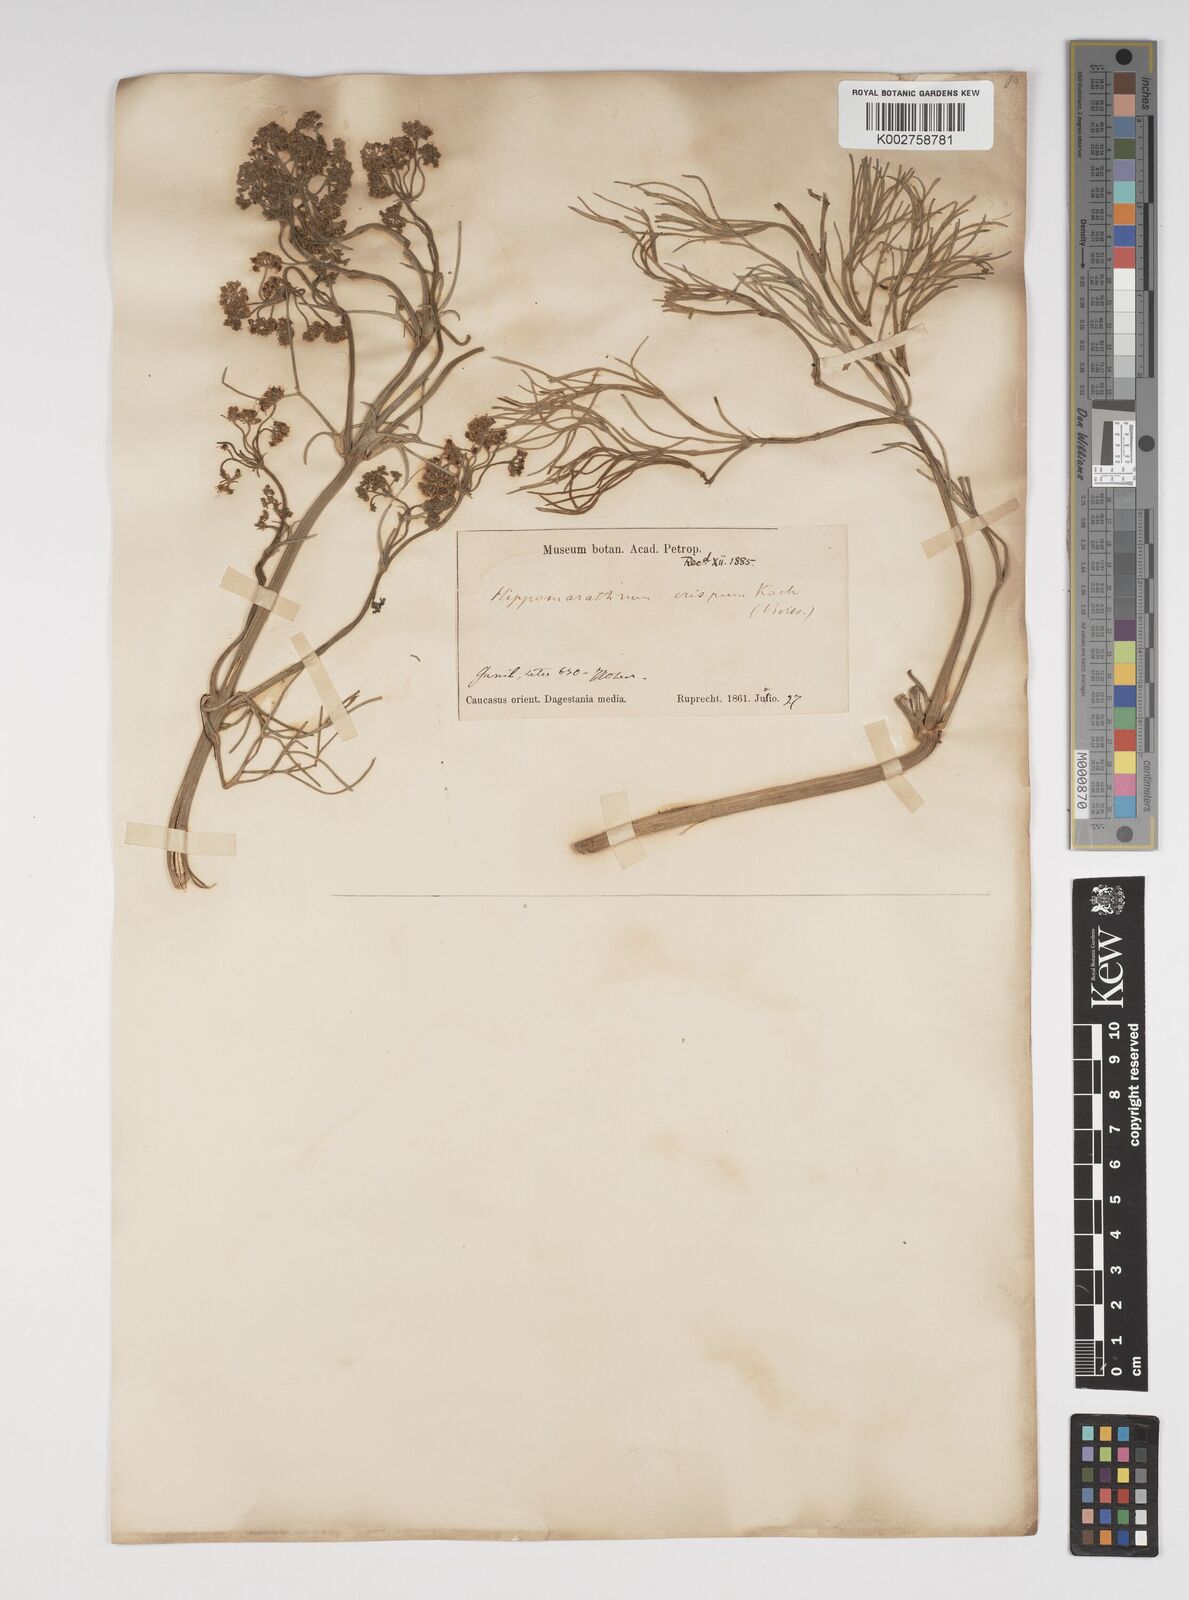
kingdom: Plantae
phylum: Tracheophyta
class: Magnoliopsida
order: Apiales
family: Apiaceae
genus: Bilacunaria
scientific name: Bilacunaria microcarpa
